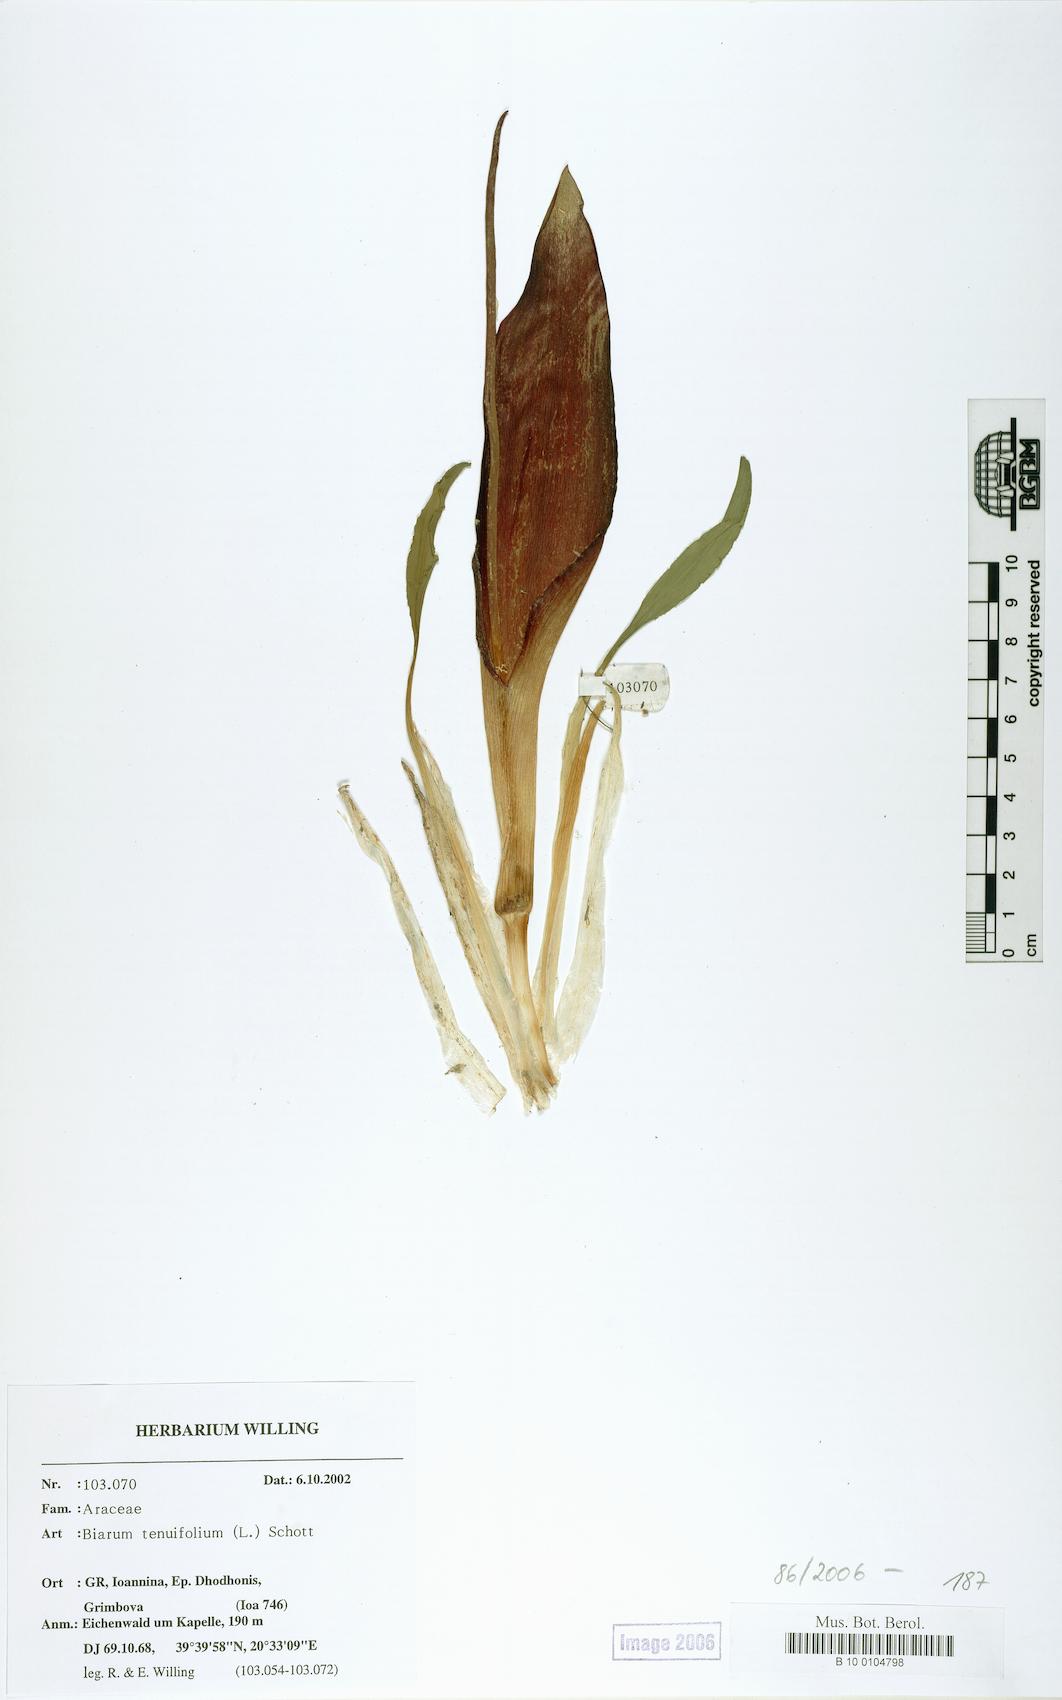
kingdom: Plantae
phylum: Tracheophyta
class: Liliopsida
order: Alismatales
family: Araceae
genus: Biarum
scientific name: Biarum tenuifolium
